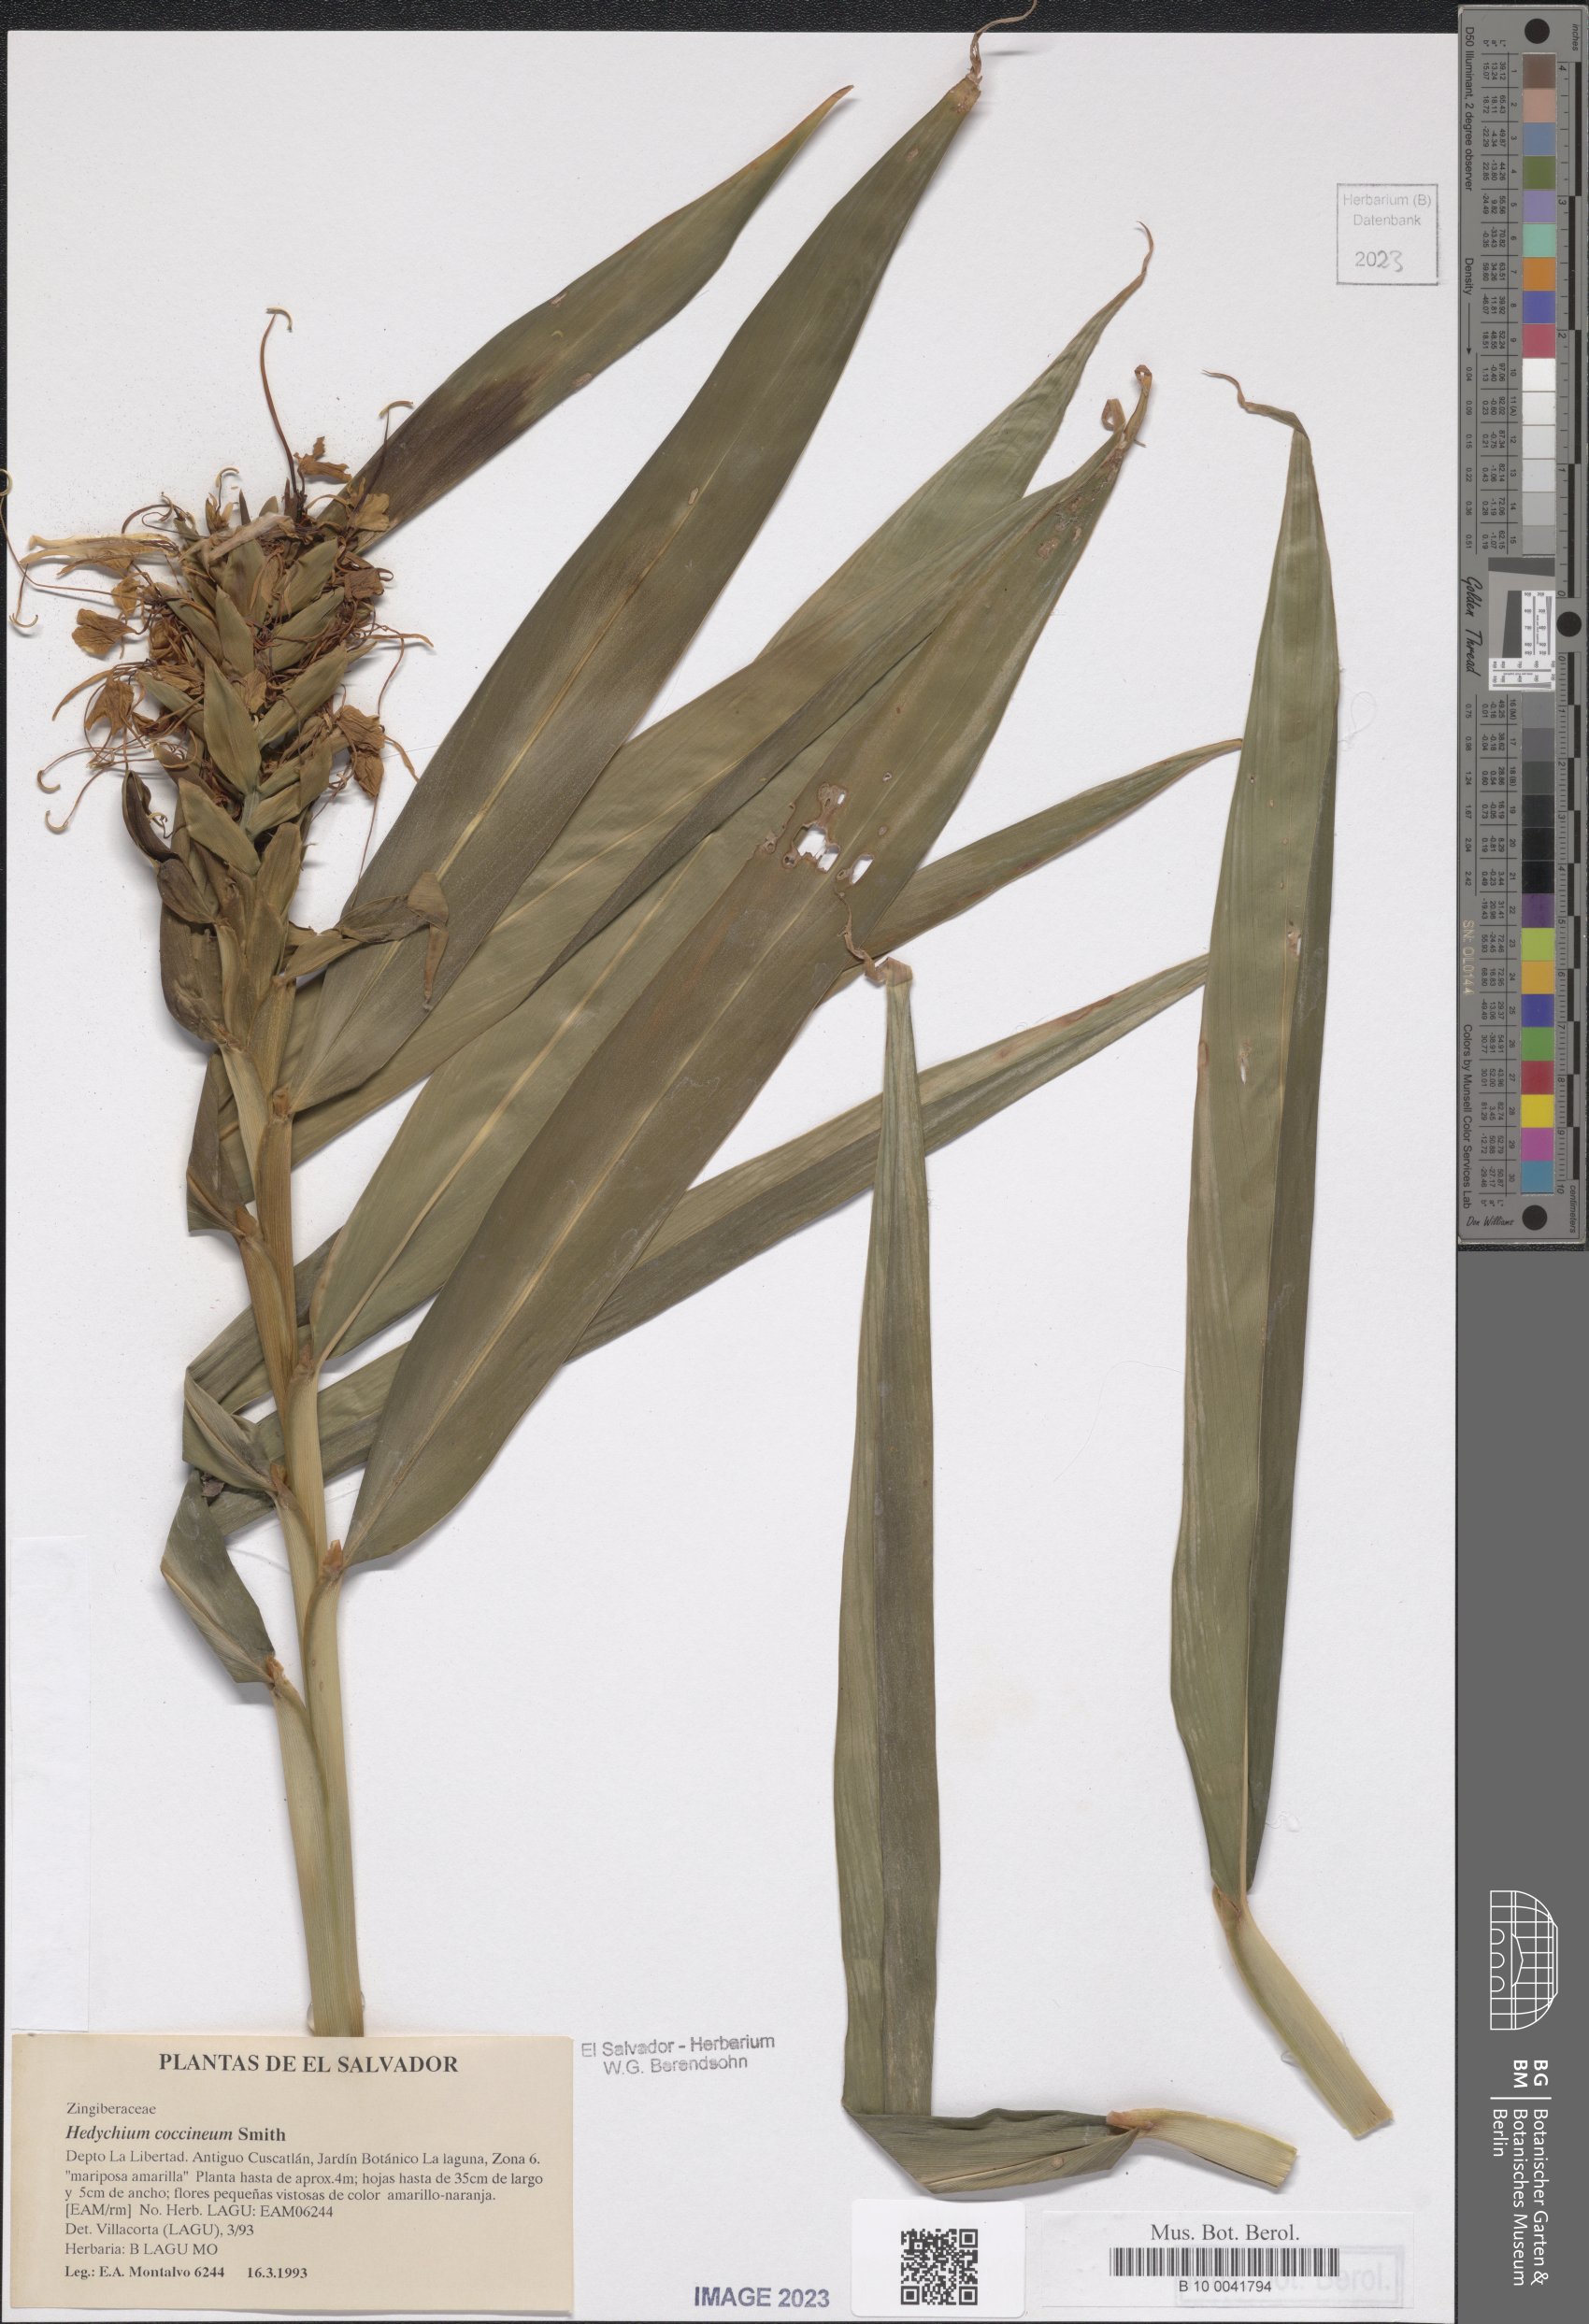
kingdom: Plantae
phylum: Tracheophyta
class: Liliopsida
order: Zingiberales
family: Zingiberaceae
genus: Hedychium
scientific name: Hedychium coccineum
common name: Red ginger-lily
